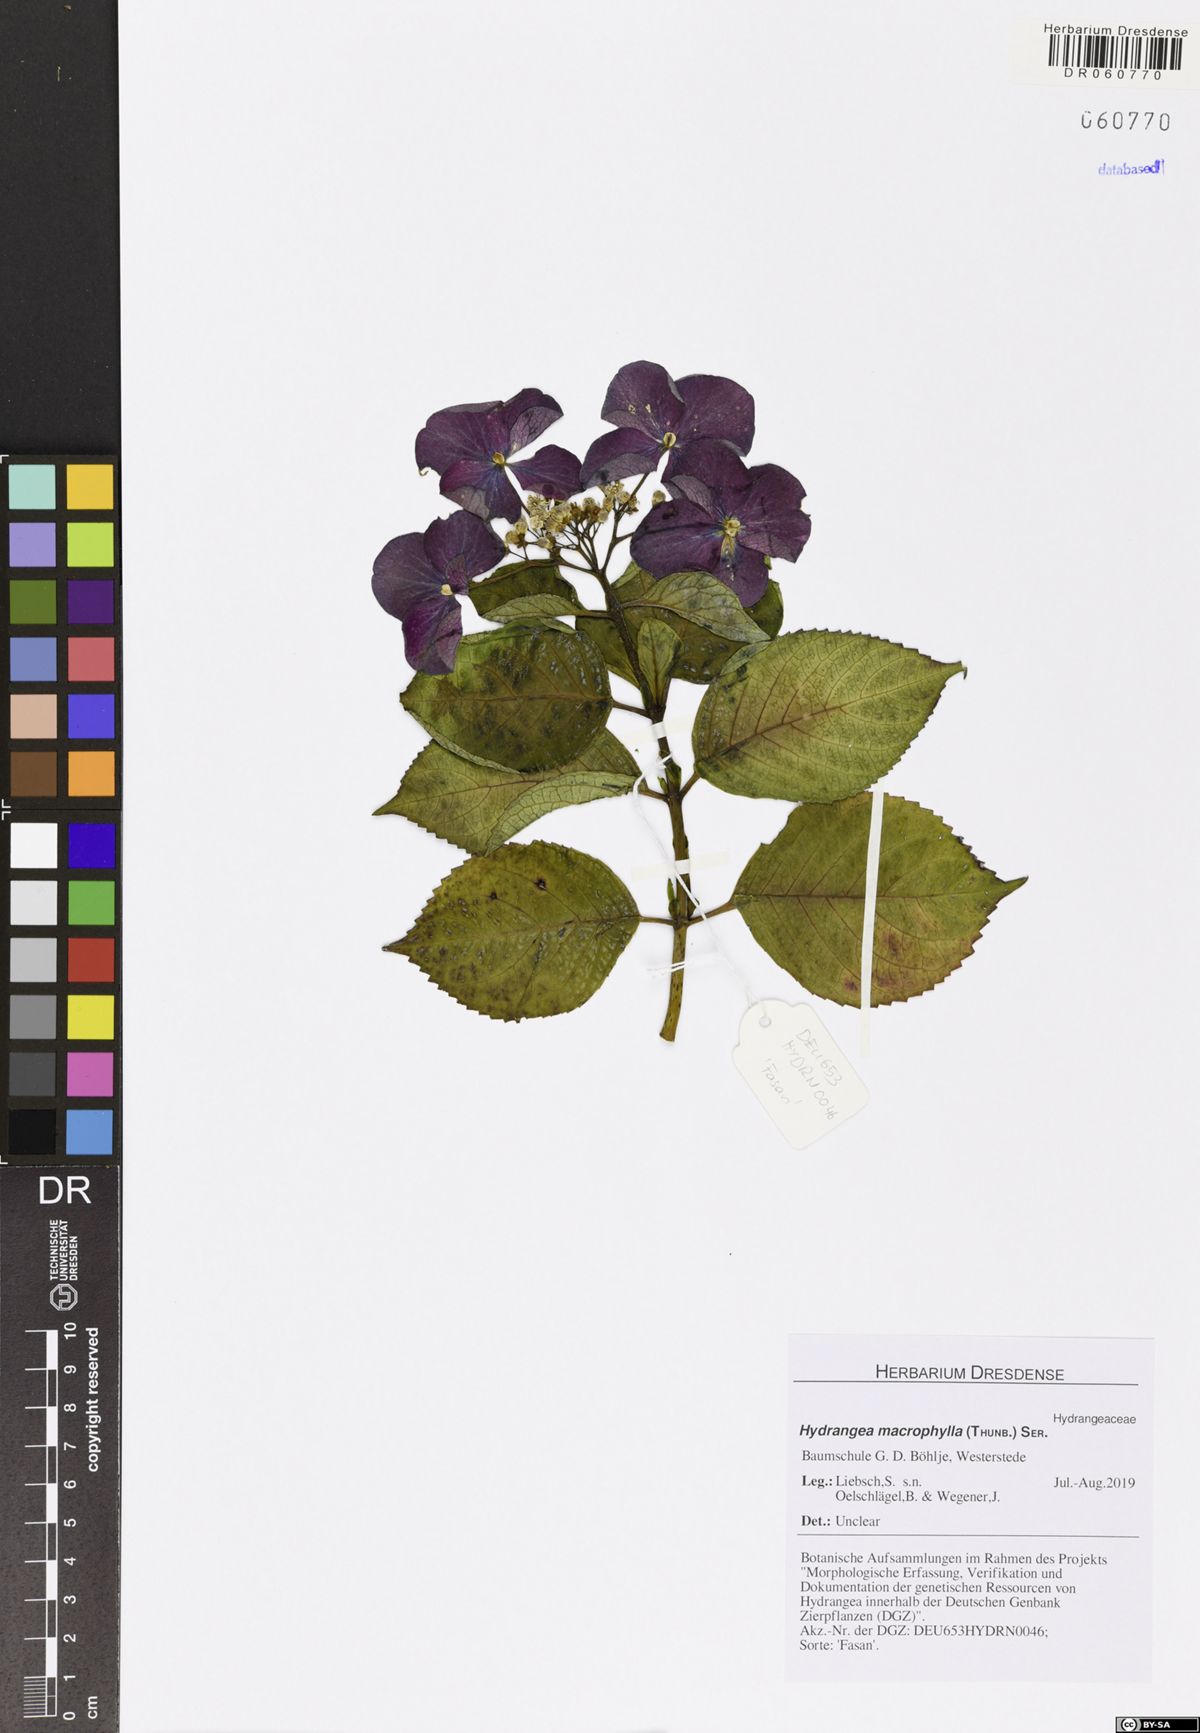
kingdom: Plantae
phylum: Tracheophyta
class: Magnoliopsida
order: Cornales
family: Hydrangeaceae
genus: Hydrangea
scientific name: Hydrangea macrophylla
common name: Hydrangea
